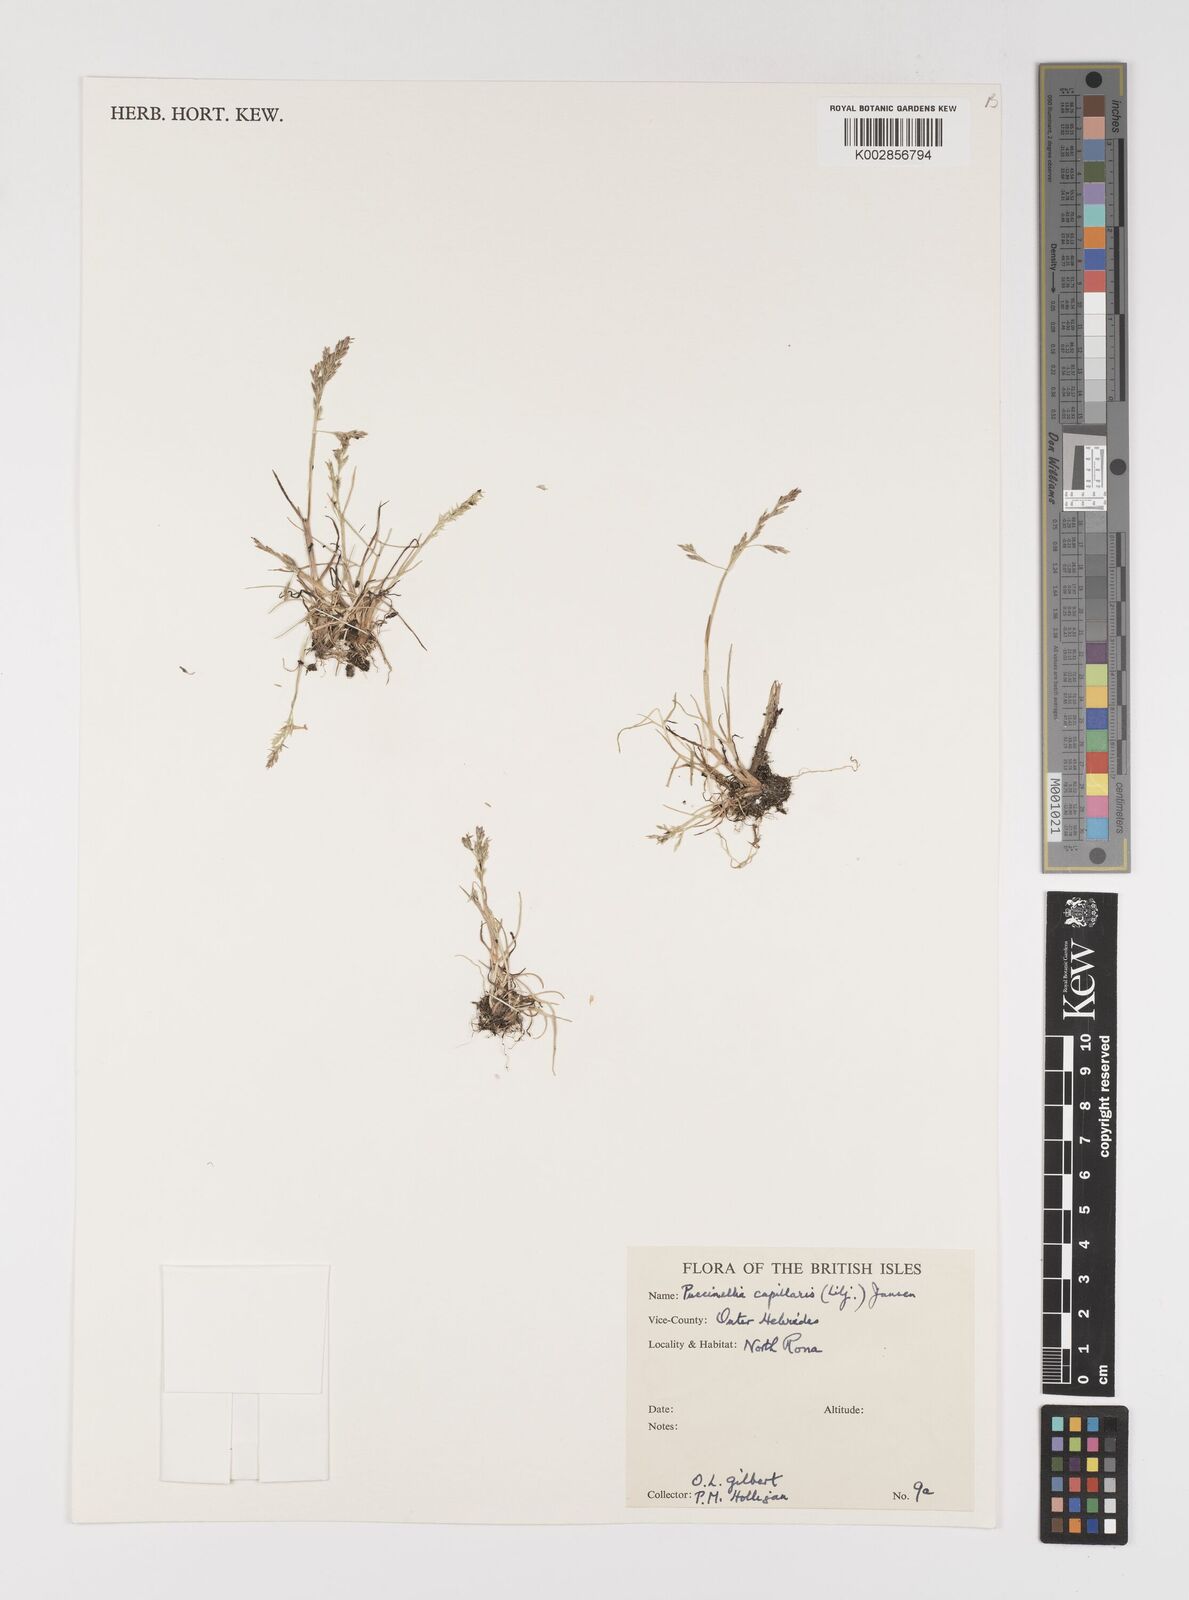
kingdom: Plantae
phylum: Tracheophyta
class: Liliopsida
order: Poales
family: Poaceae
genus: Puccinellia
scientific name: Puccinellia distans
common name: Weeping alkaligrass
